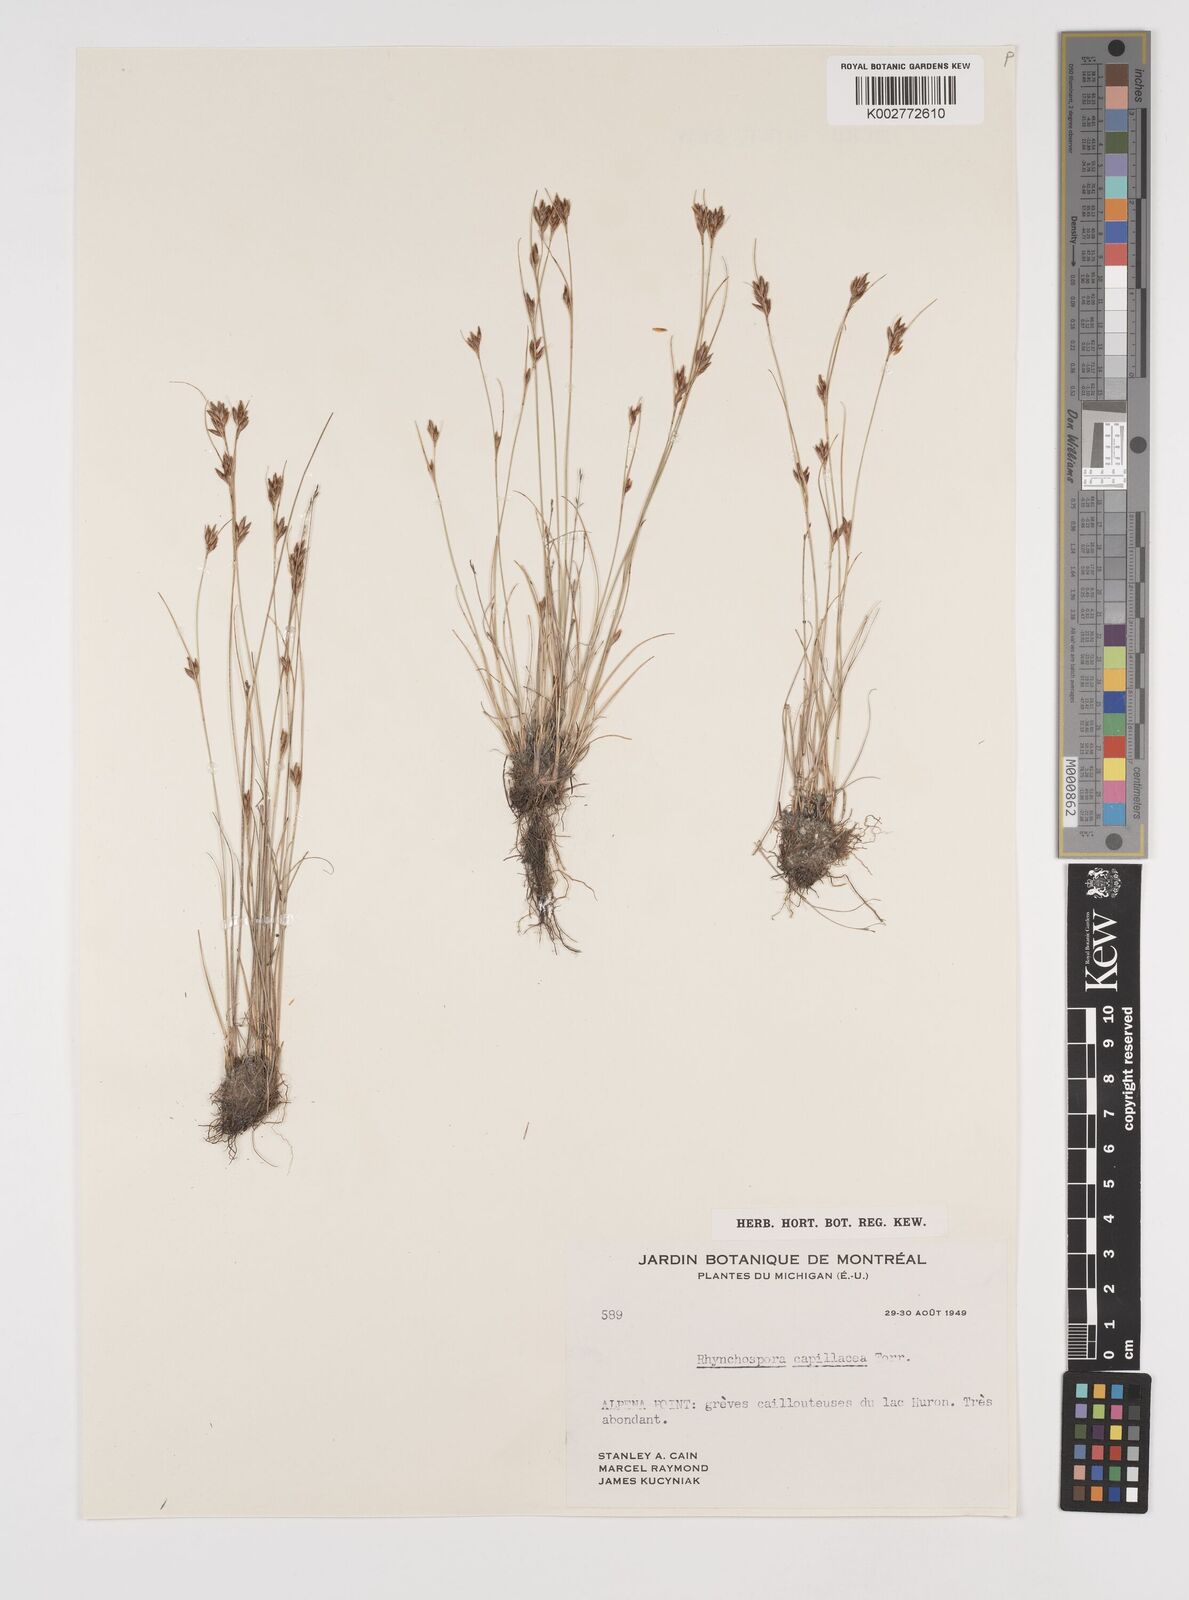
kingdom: Plantae
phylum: Tracheophyta
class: Liliopsida
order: Poales
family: Cyperaceae
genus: Rhynchospora
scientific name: Rhynchospora capillacea
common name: Capillary beakrush
